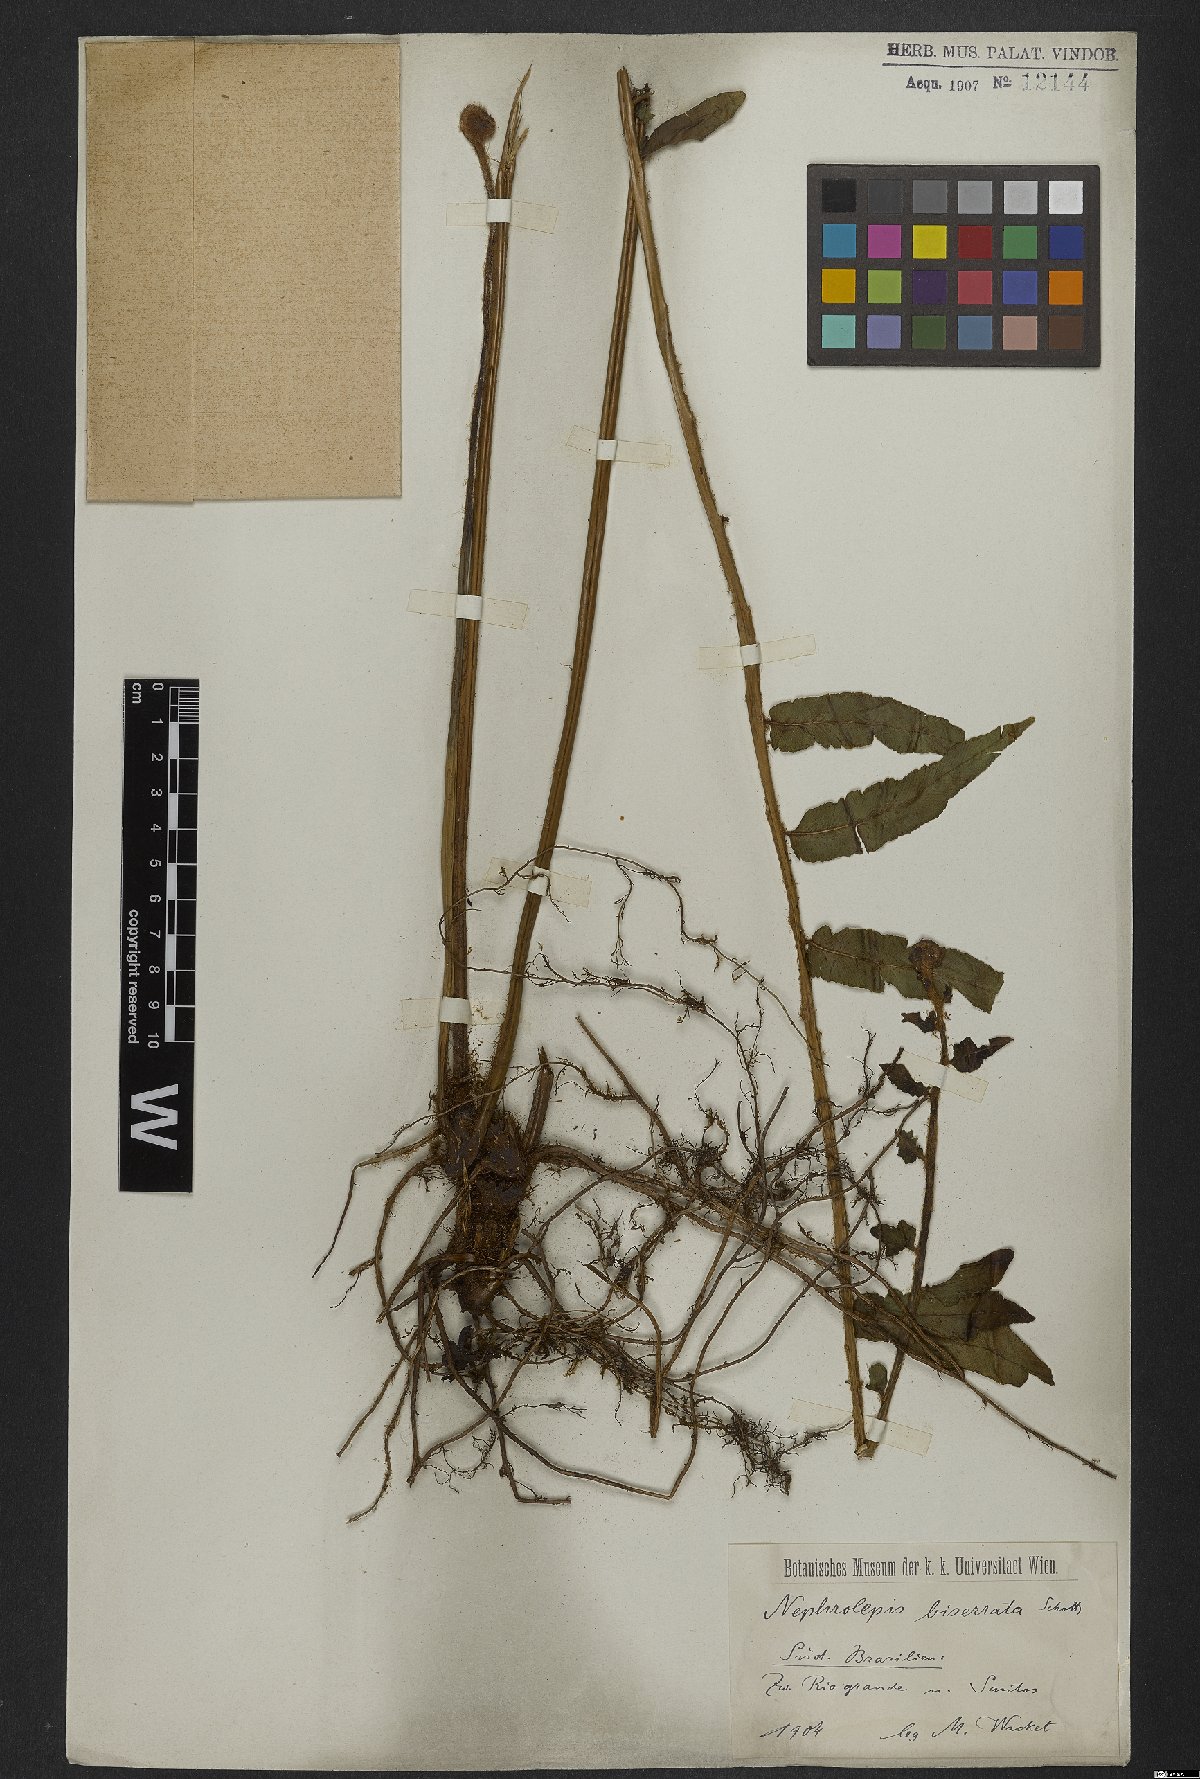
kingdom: Plantae
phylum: Tracheophyta
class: Polypodiopsida
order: Polypodiales
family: Nephrolepidaceae
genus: Nephrolepis
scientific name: Nephrolepis biserrata
